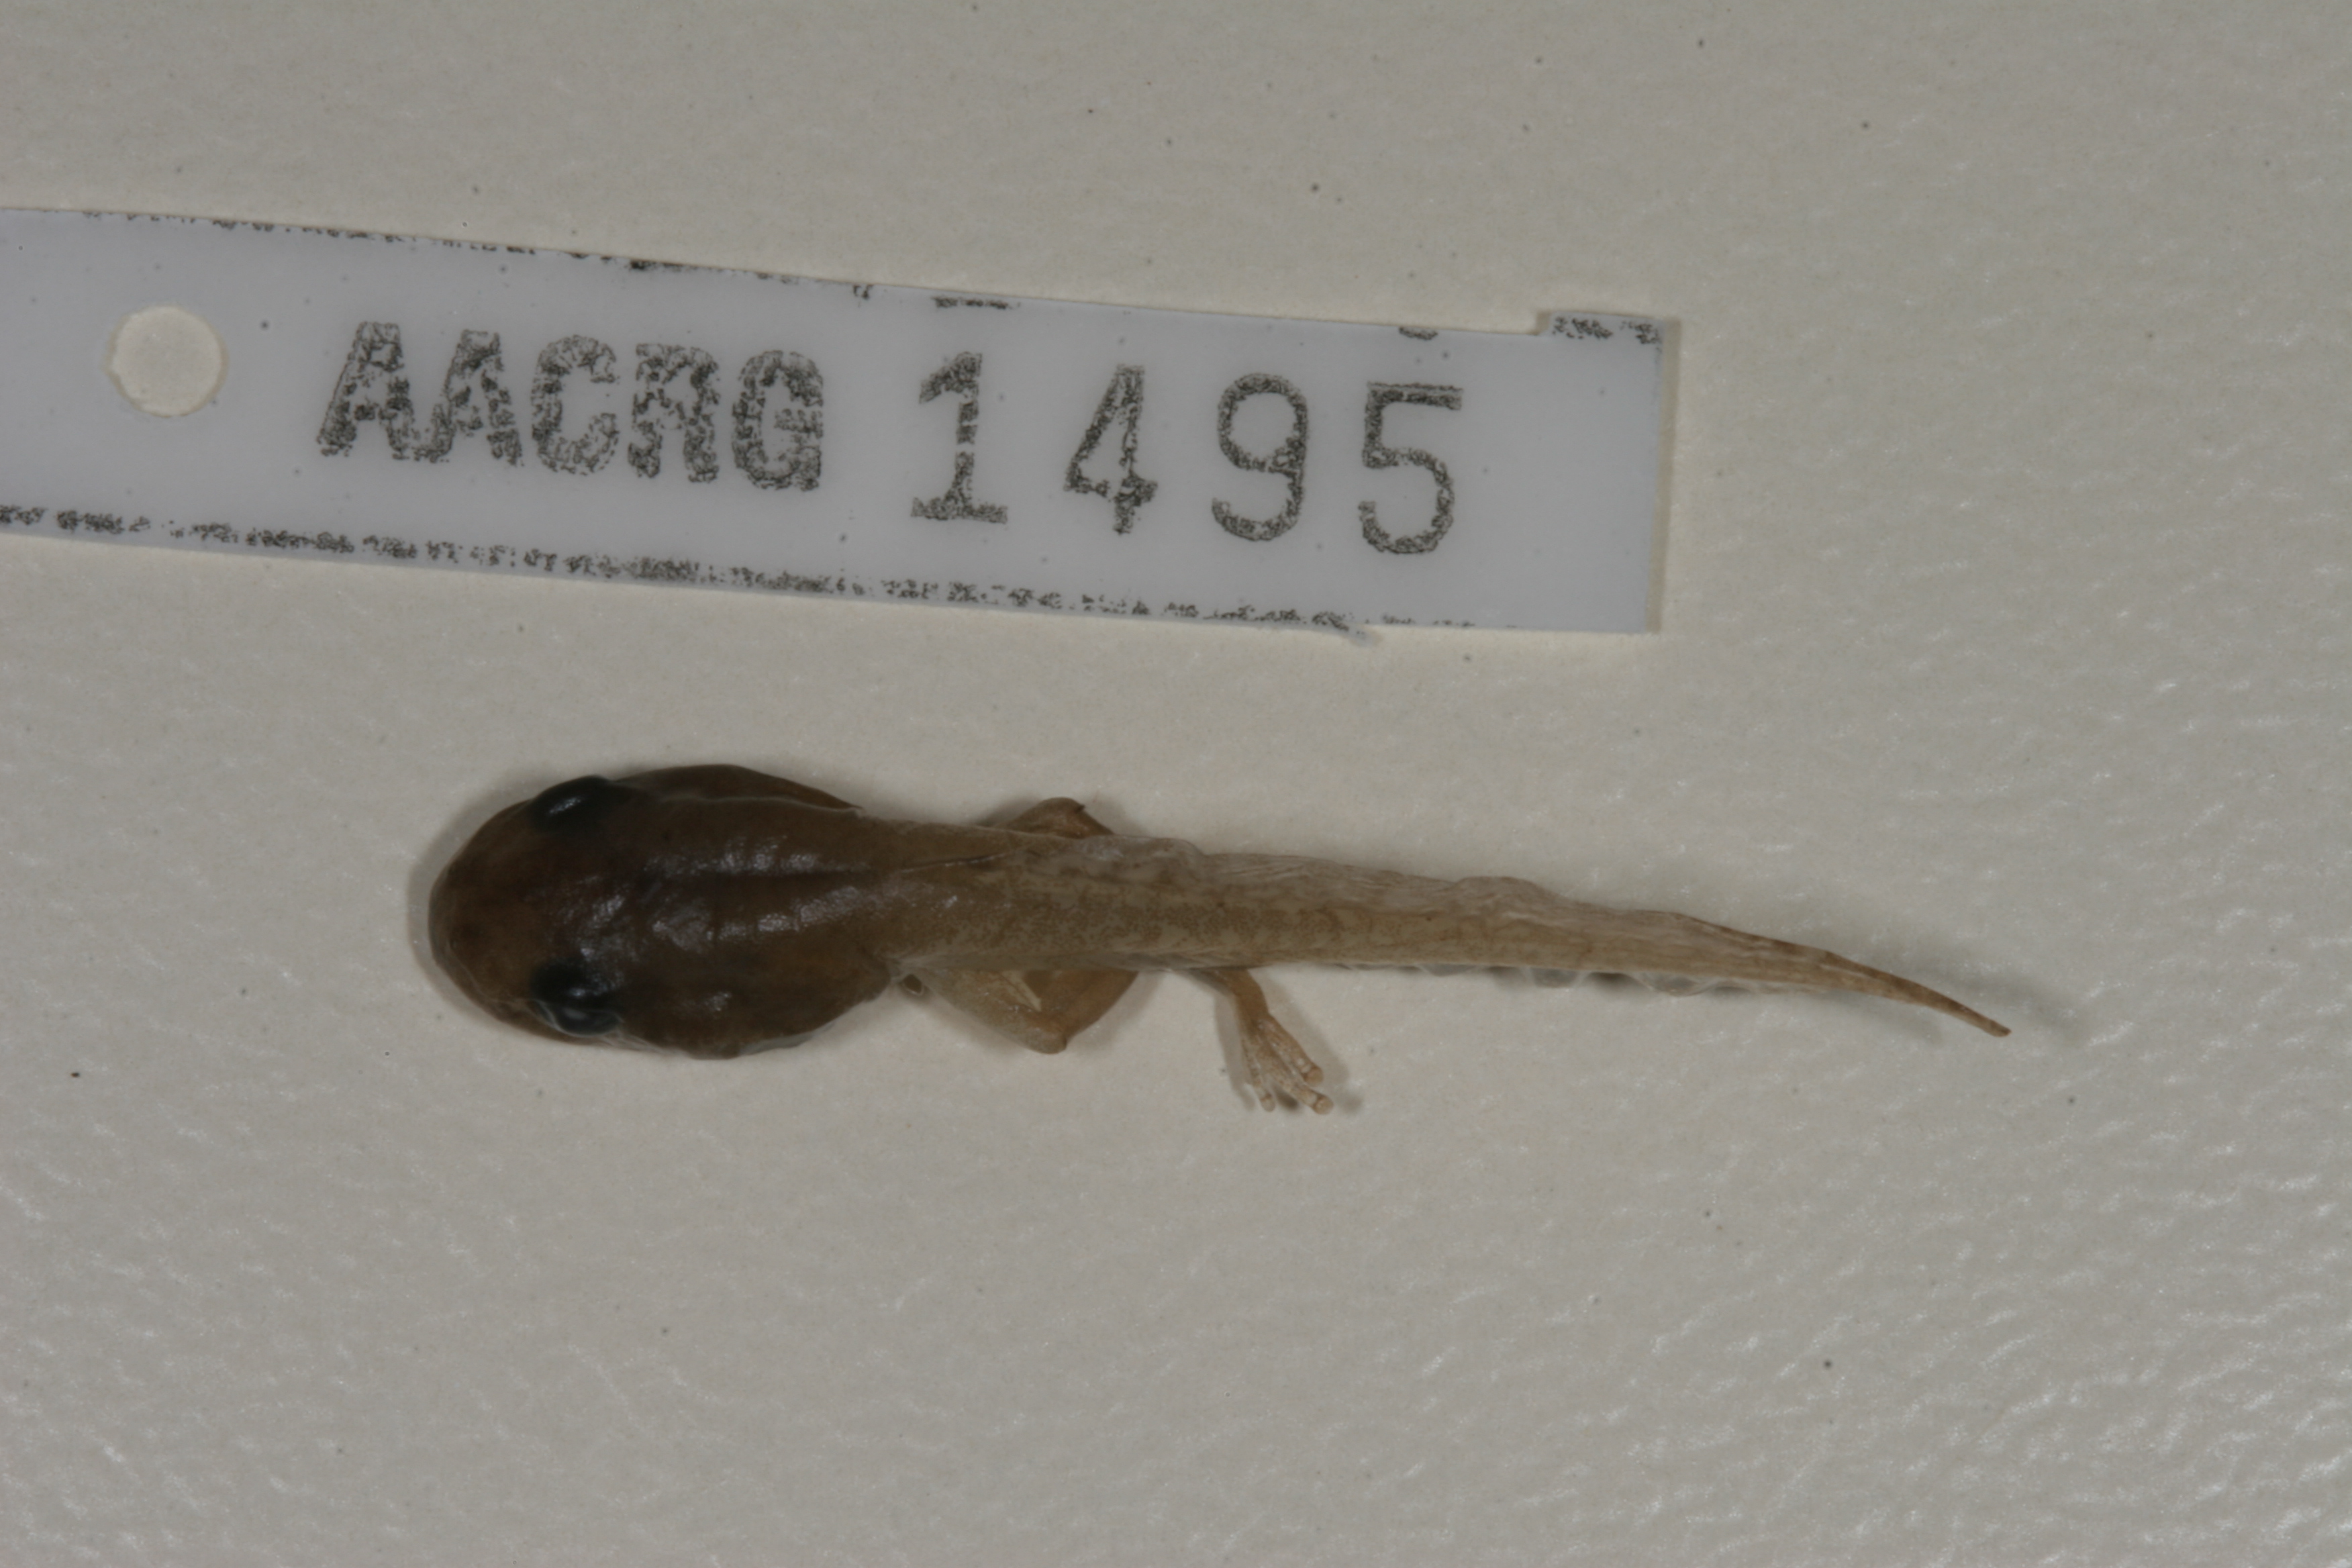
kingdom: Animalia
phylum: Chordata
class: Amphibia
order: Anura
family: Hyperoliidae
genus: Hyperolius
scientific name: Hyperolius pusillus
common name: Water lily reed frog
